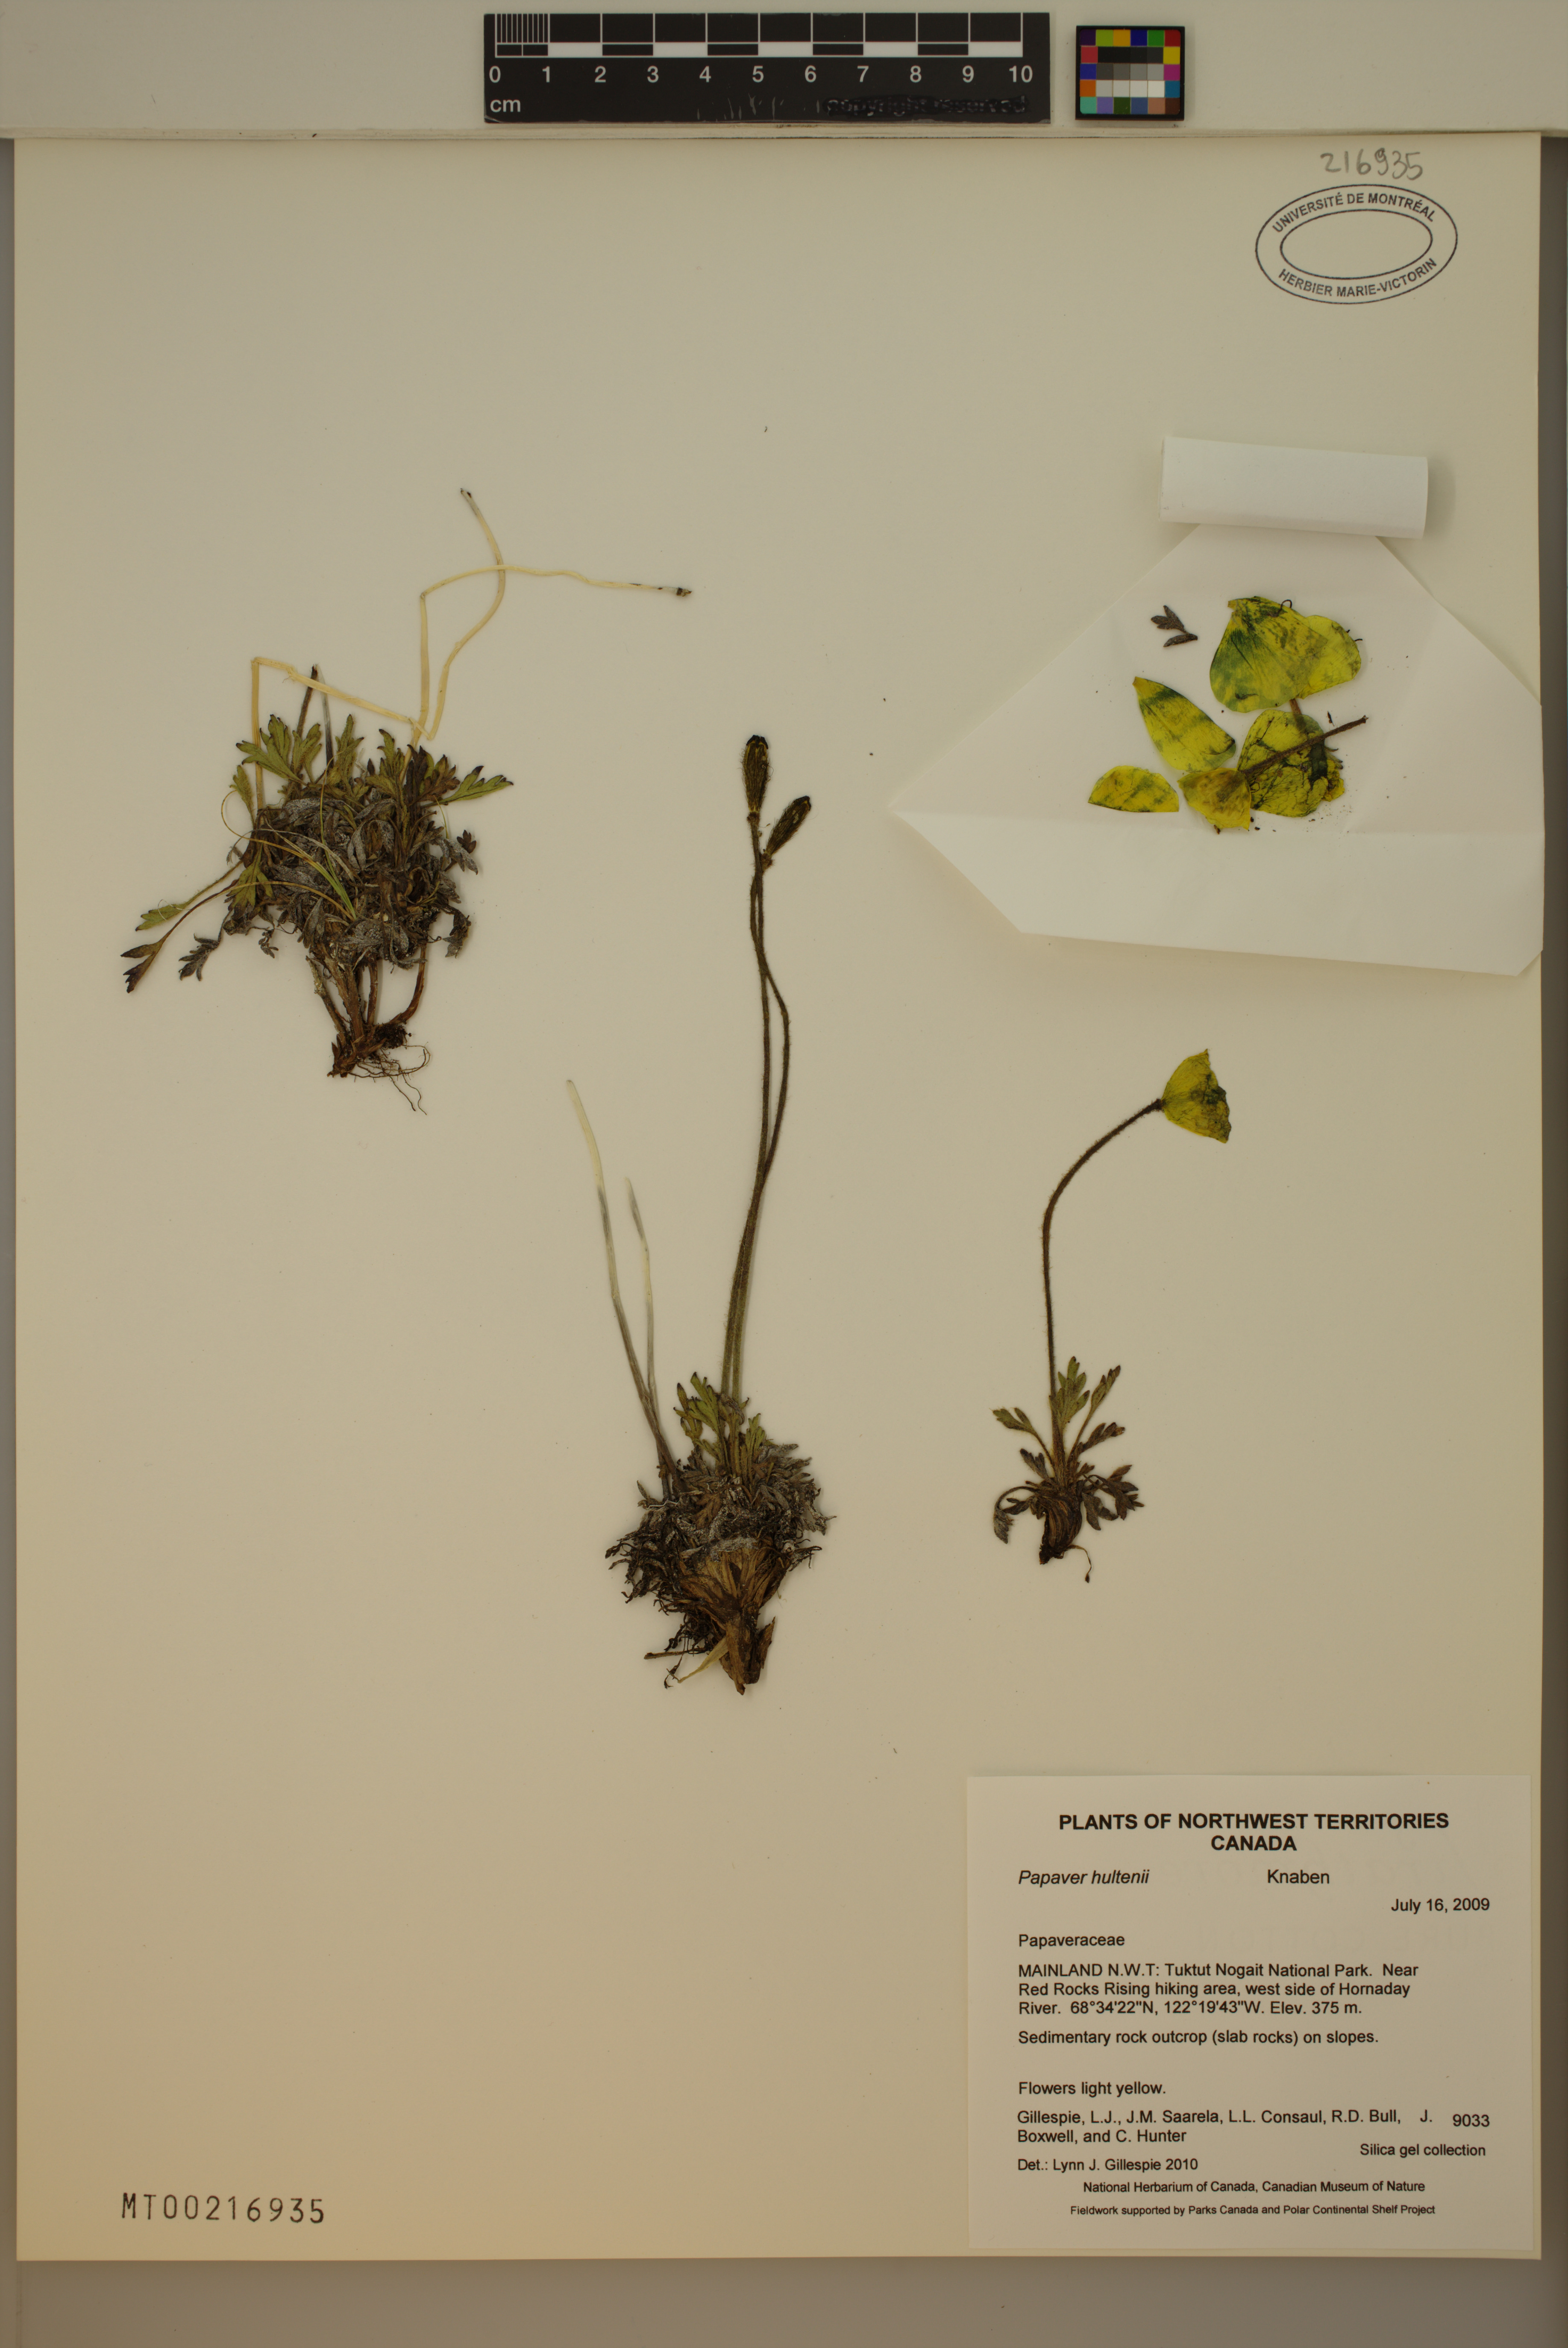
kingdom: Plantae
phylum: Tracheophyta
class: Magnoliopsida
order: Ranunculales
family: Papaveraceae
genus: Papaver
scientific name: Papaver lapponicum
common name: Lapland poppy
